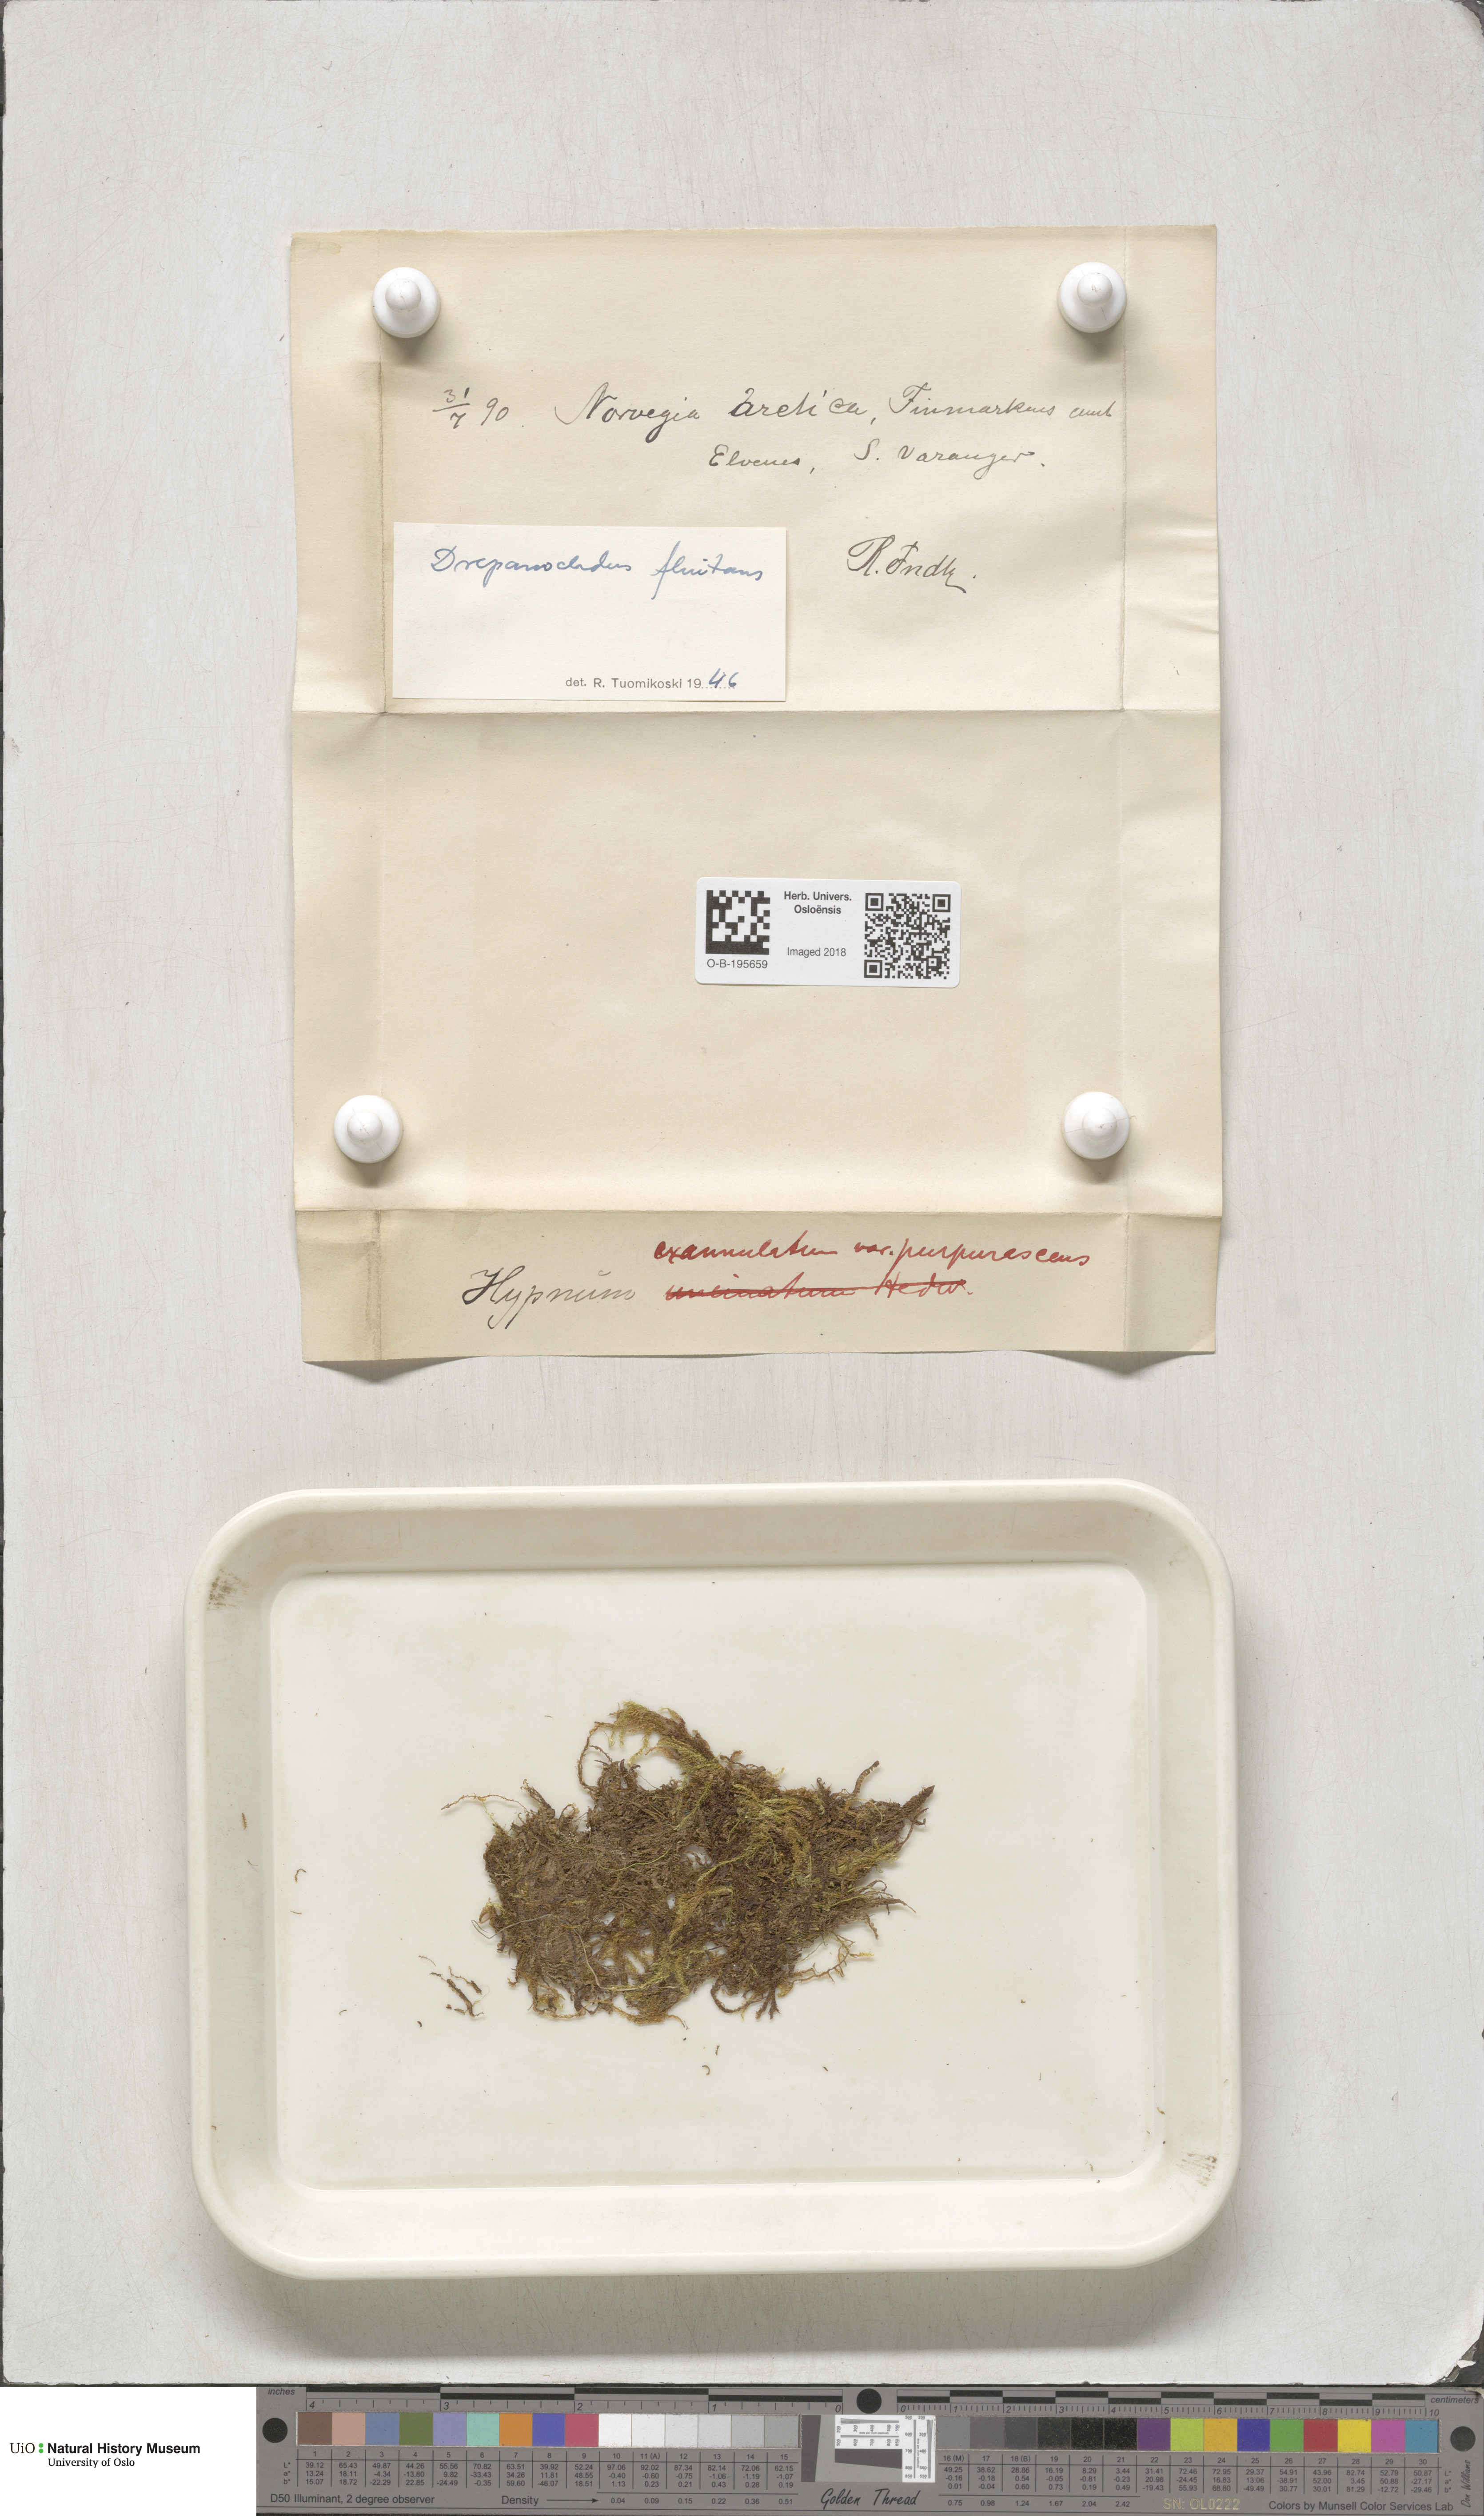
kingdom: Plantae
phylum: Bryophyta
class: Bryopsida
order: Hypnales
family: Calliergonaceae
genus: Warnstorfia
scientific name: Warnstorfia fluitans
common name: Floating hook moss
